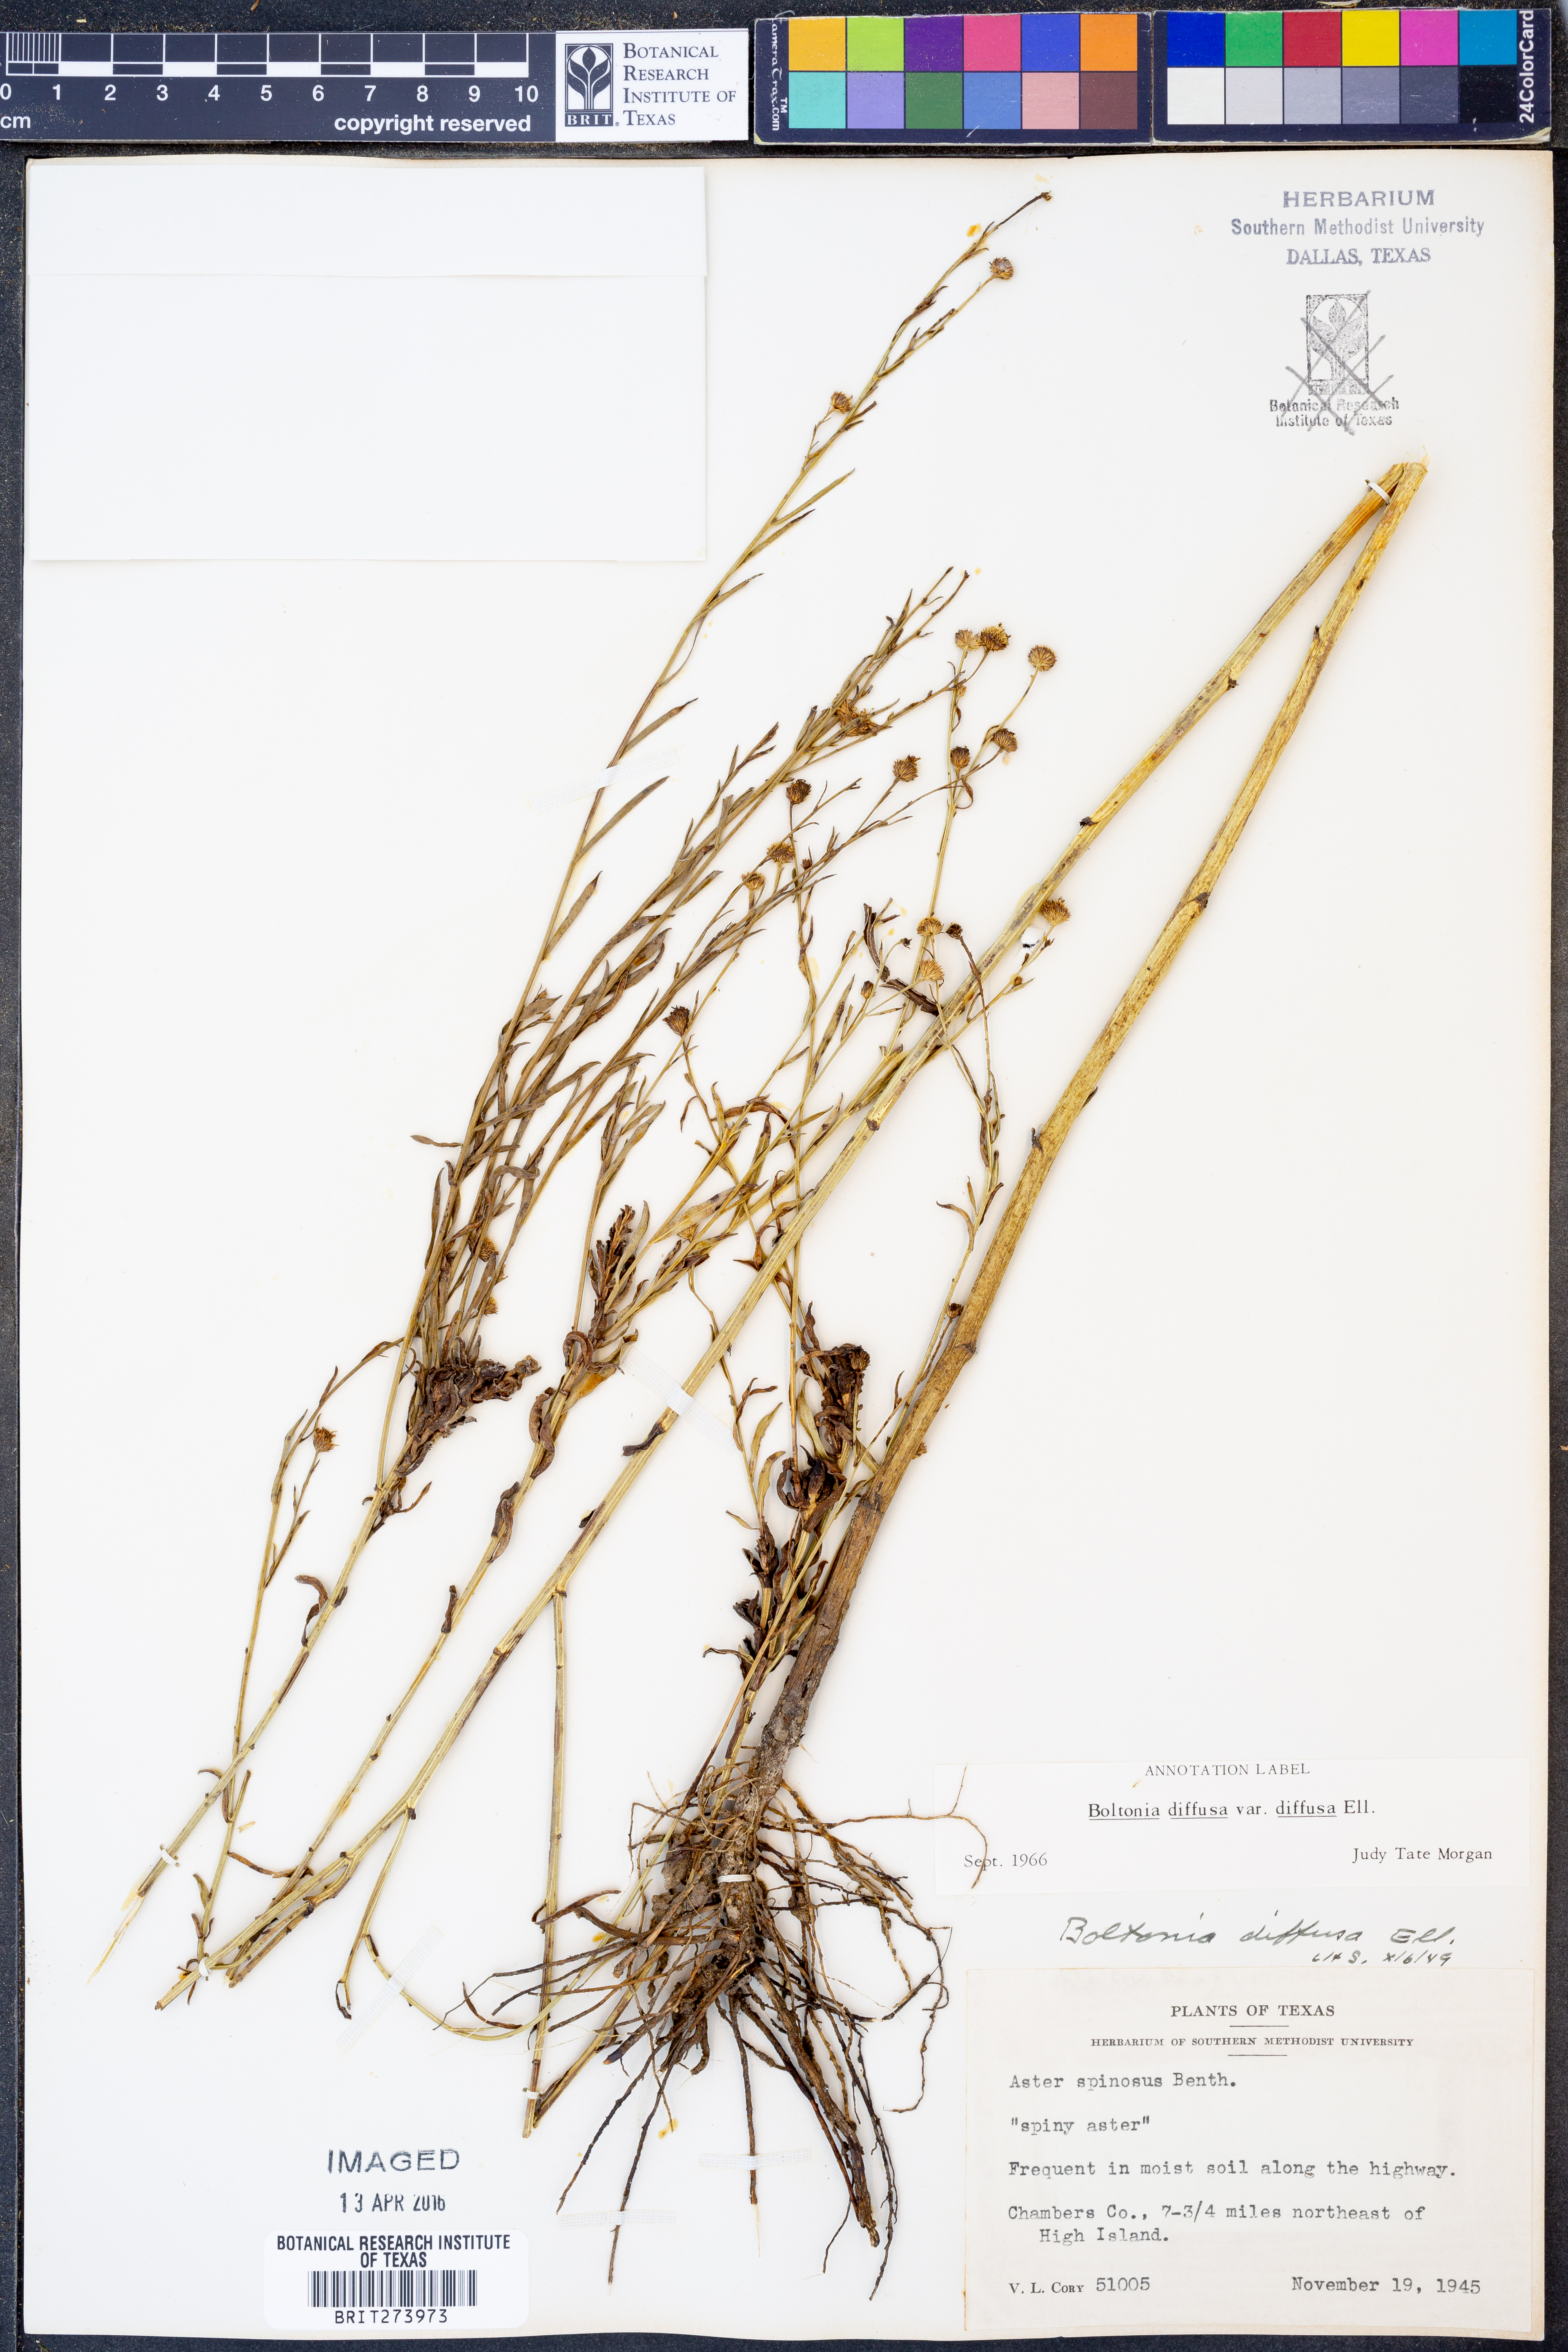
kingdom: Plantae
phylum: Tracheophyta
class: Magnoliopsida
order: Asterales
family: Asteraceae
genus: Boltonia
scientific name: Boltonia diffusa
